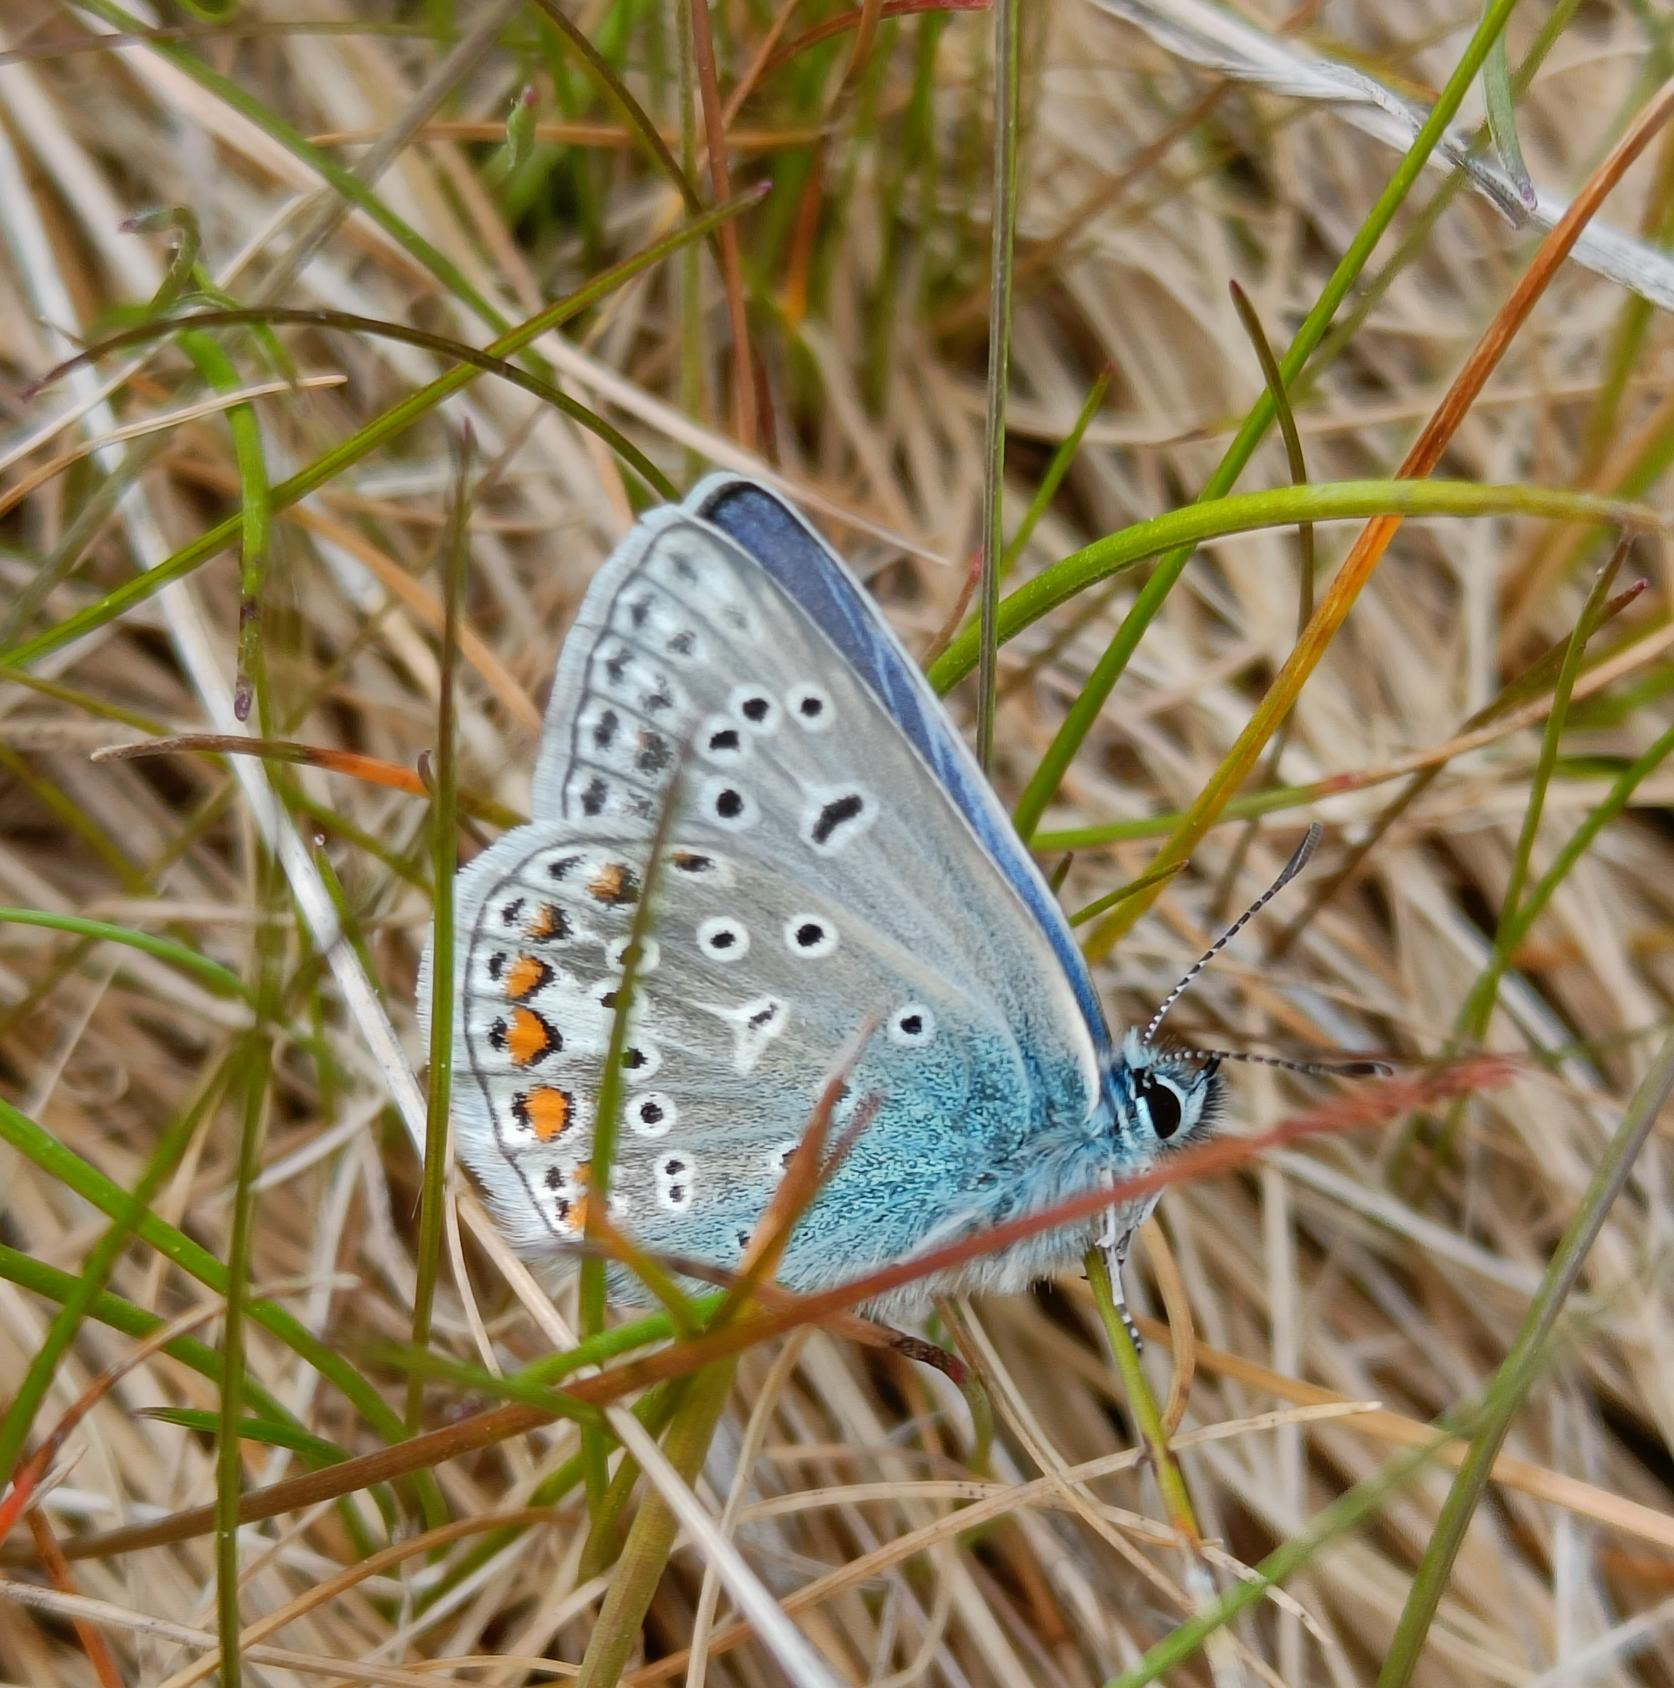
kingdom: Animalia
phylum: Arthropoda
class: Insecta
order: Lepidoptera
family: Lycaenidae
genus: Polyommatus
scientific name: Polyommatus icarus
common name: Almindelig blåfugl
